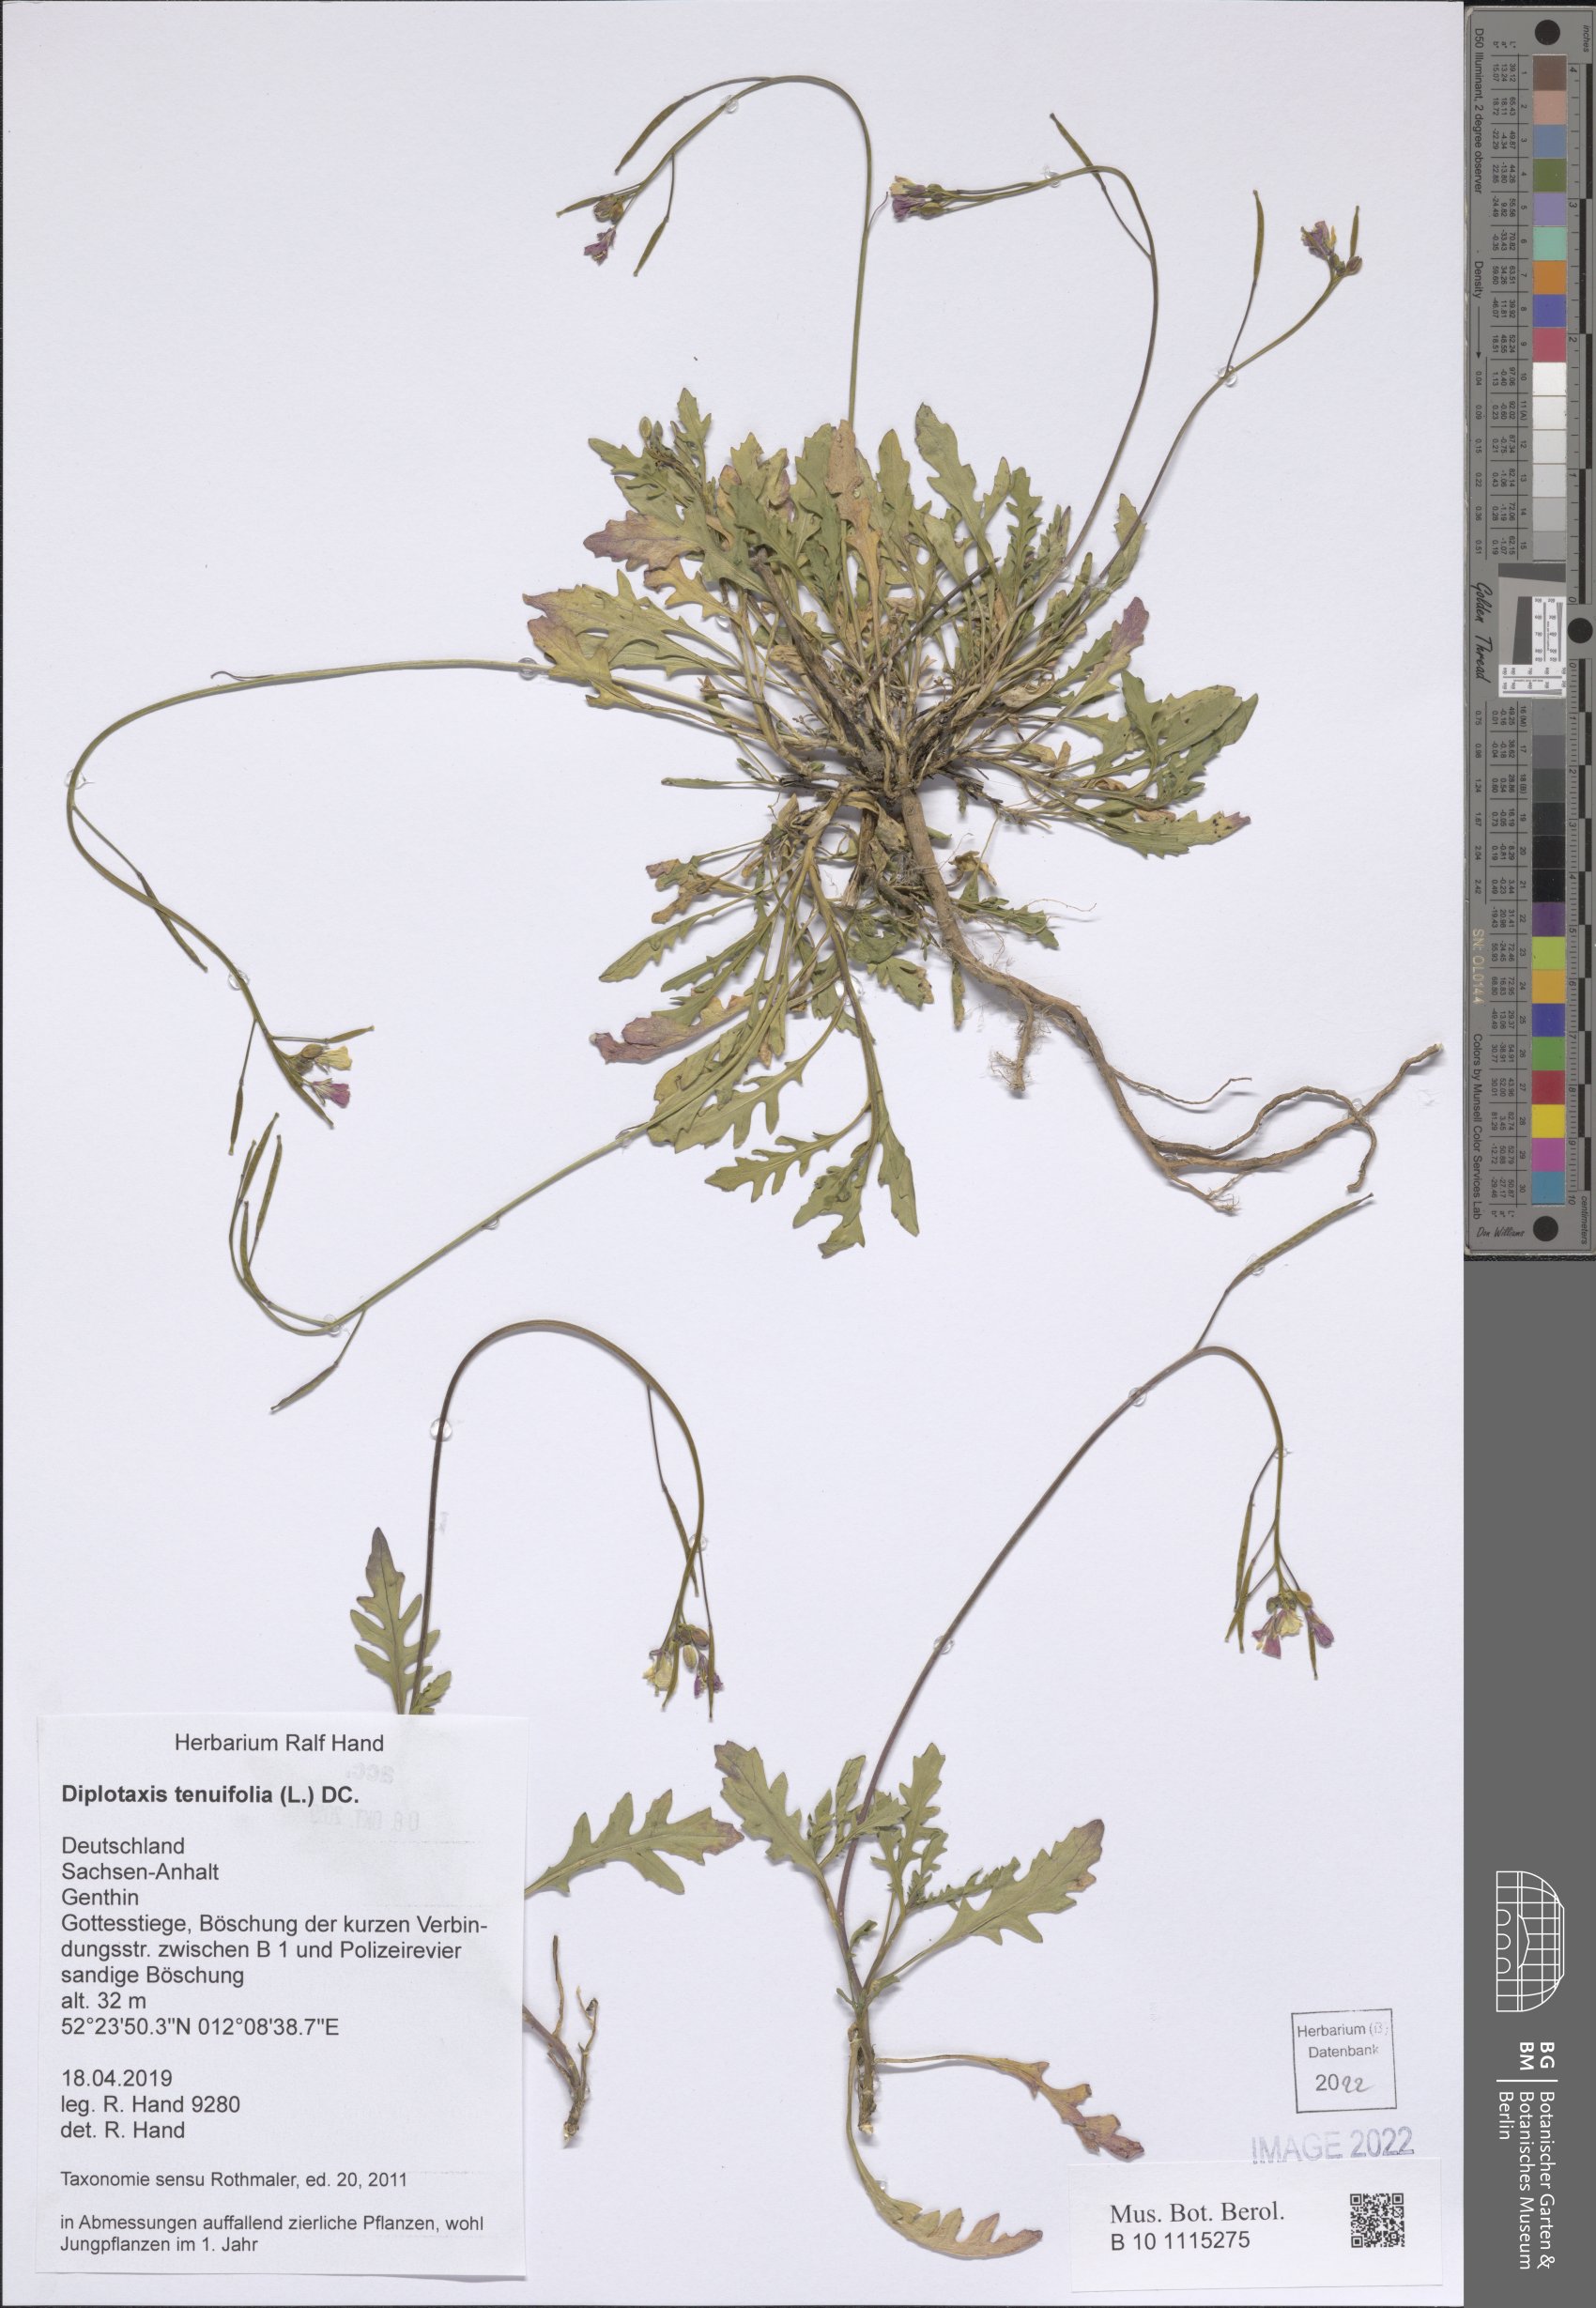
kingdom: Plantae
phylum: Tracheophyta
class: Magnoliopsida
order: Brassicales
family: Brassicaceae
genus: Diplotaxis
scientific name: Diplotaxis tenuifolia
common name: Perennial wall-rocket
